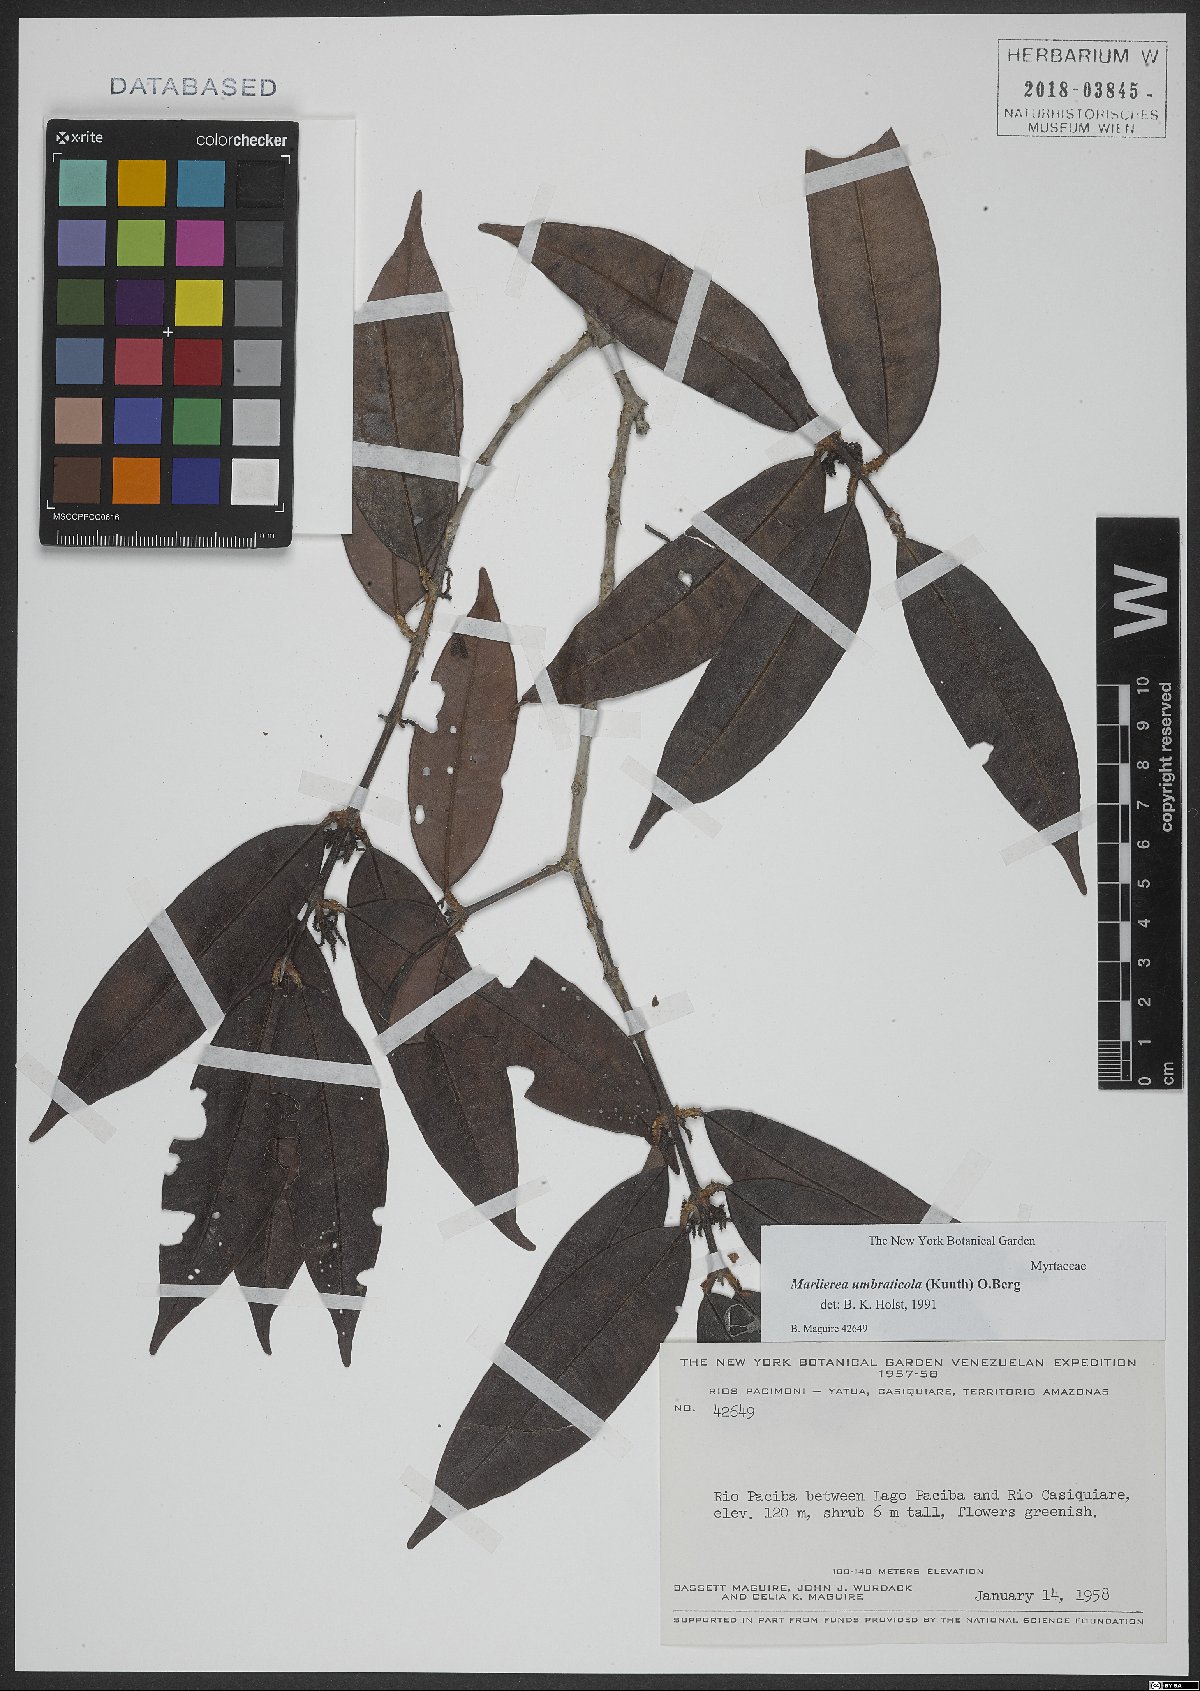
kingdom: Plantae
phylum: Tracheophyta
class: Magnoliopsida
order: Myrtales
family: Myrtaceae
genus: Myrcia
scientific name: Myrcia umbraticola
